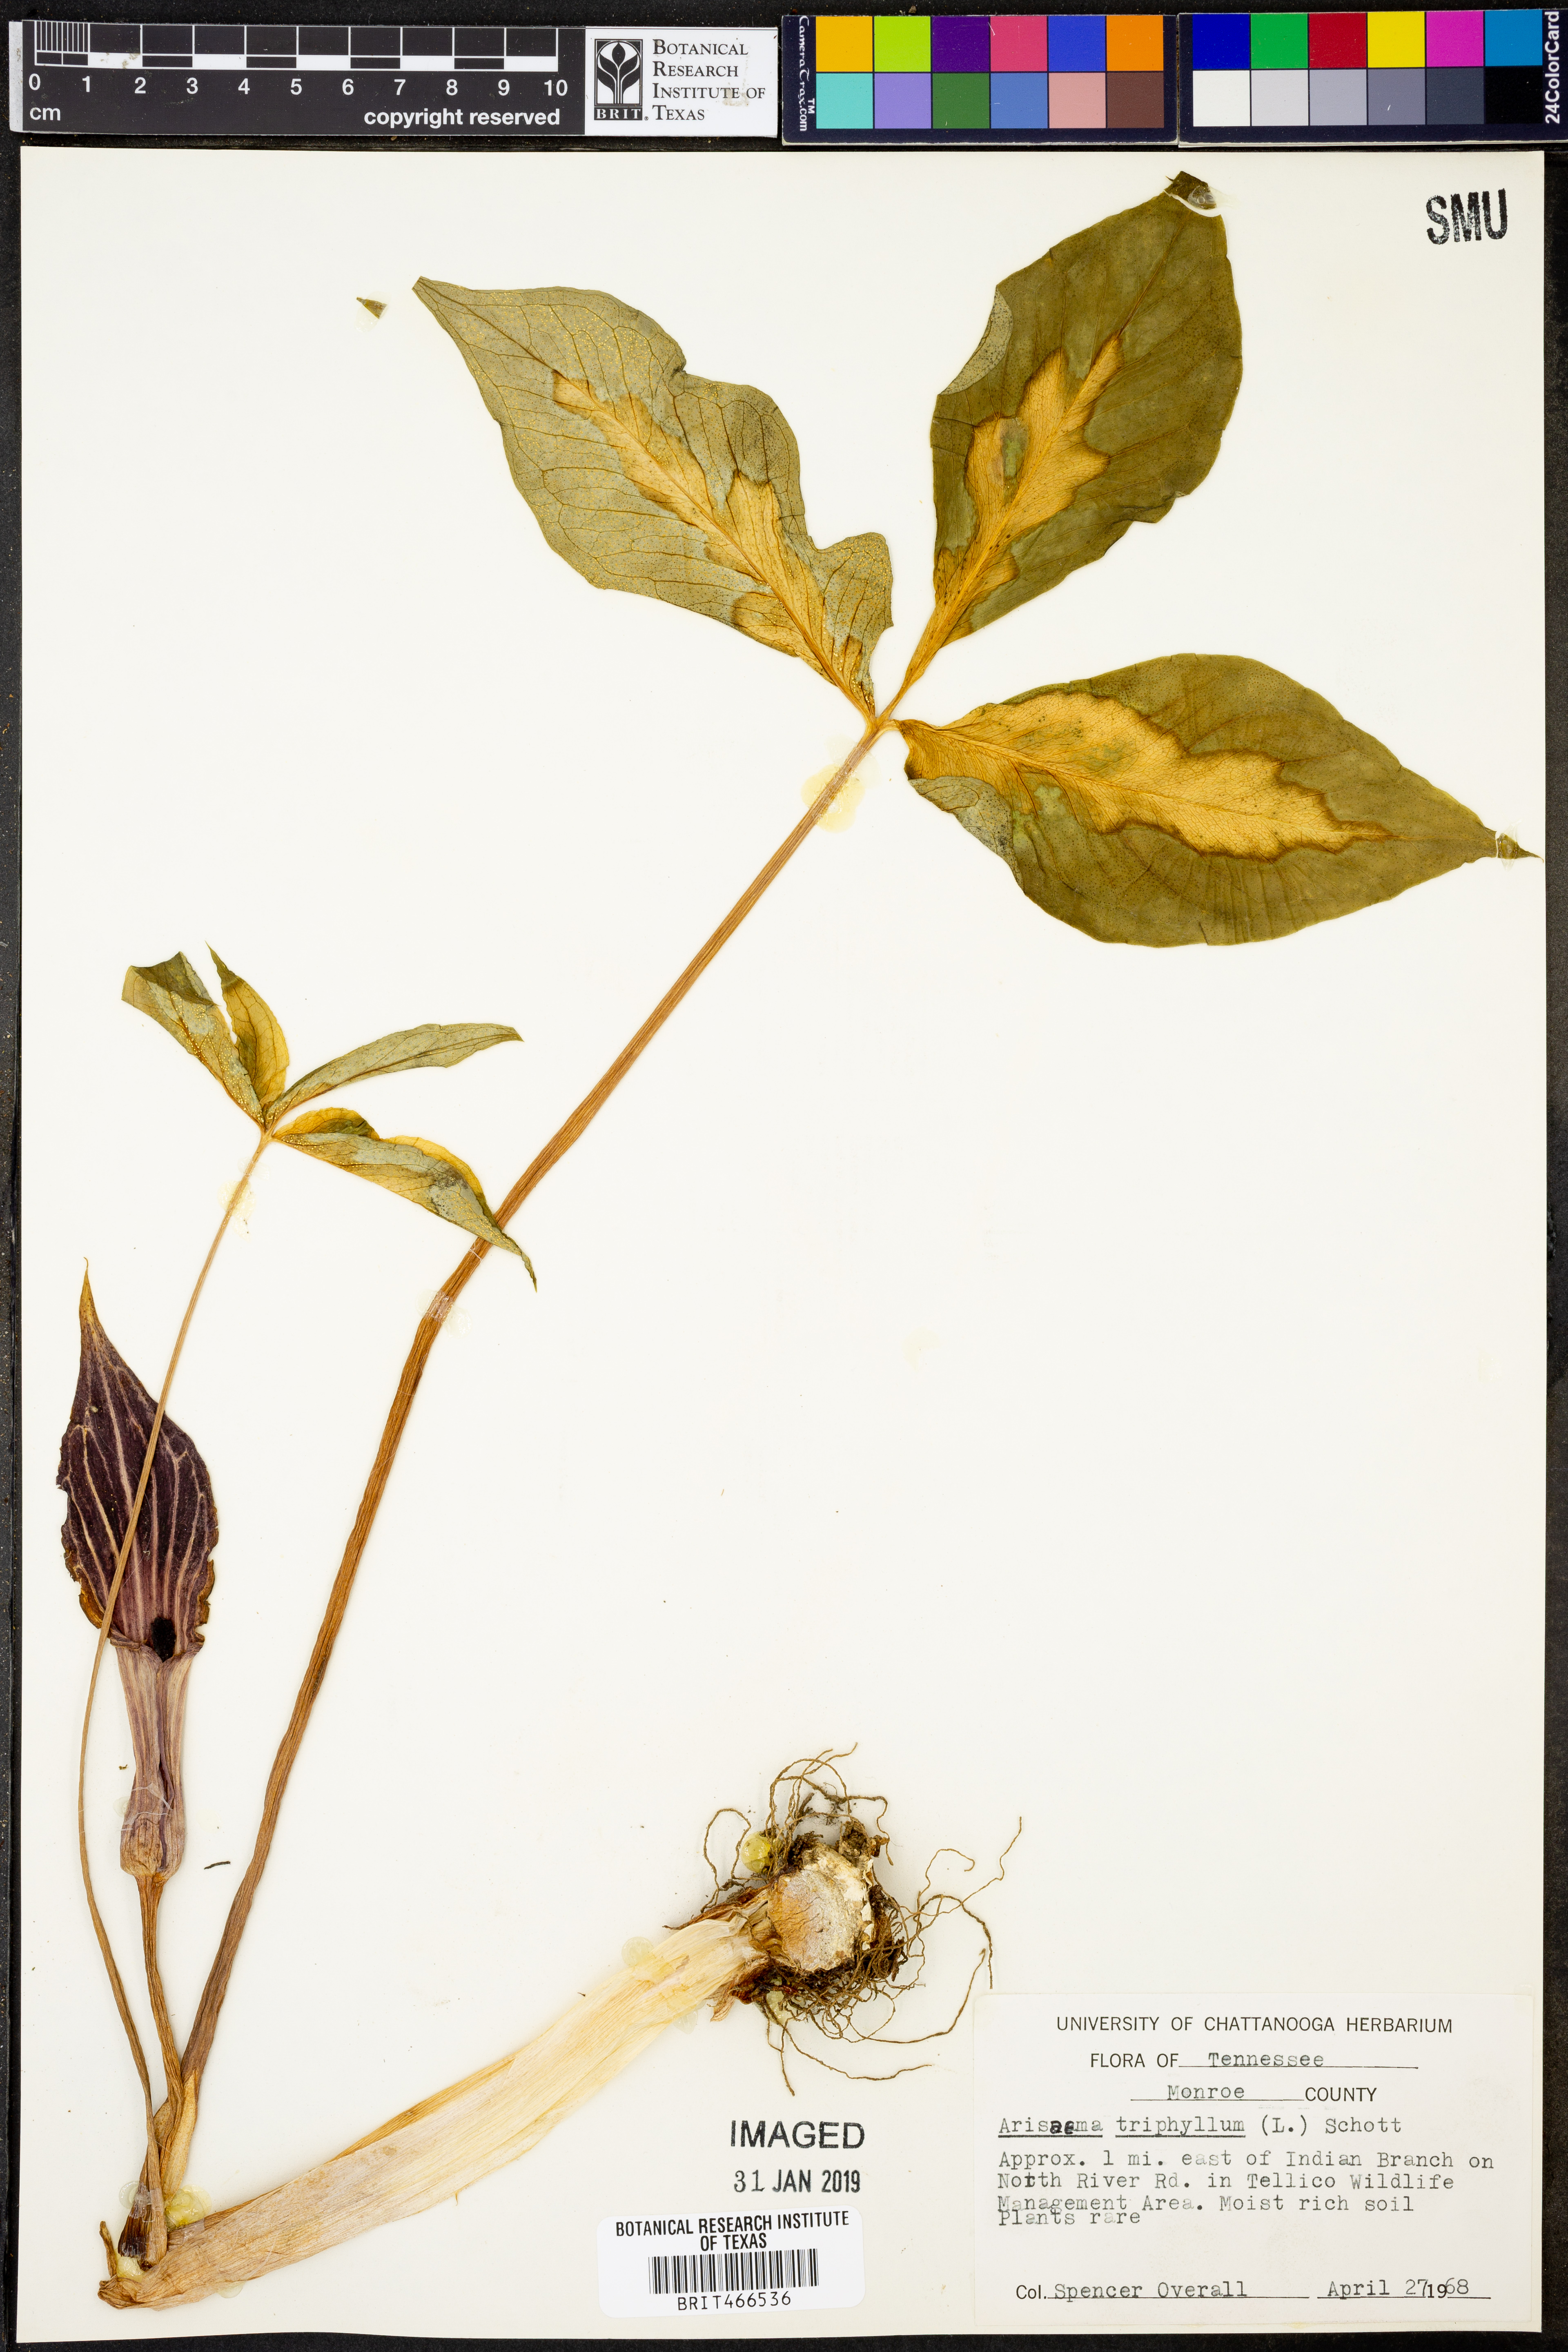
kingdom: Plantae
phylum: Tracheophyta
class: Liliopsida
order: Alismatales
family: Araceae
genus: Arisaema
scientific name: Arisaema triphyllum
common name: Jack-in-the-pulpit
